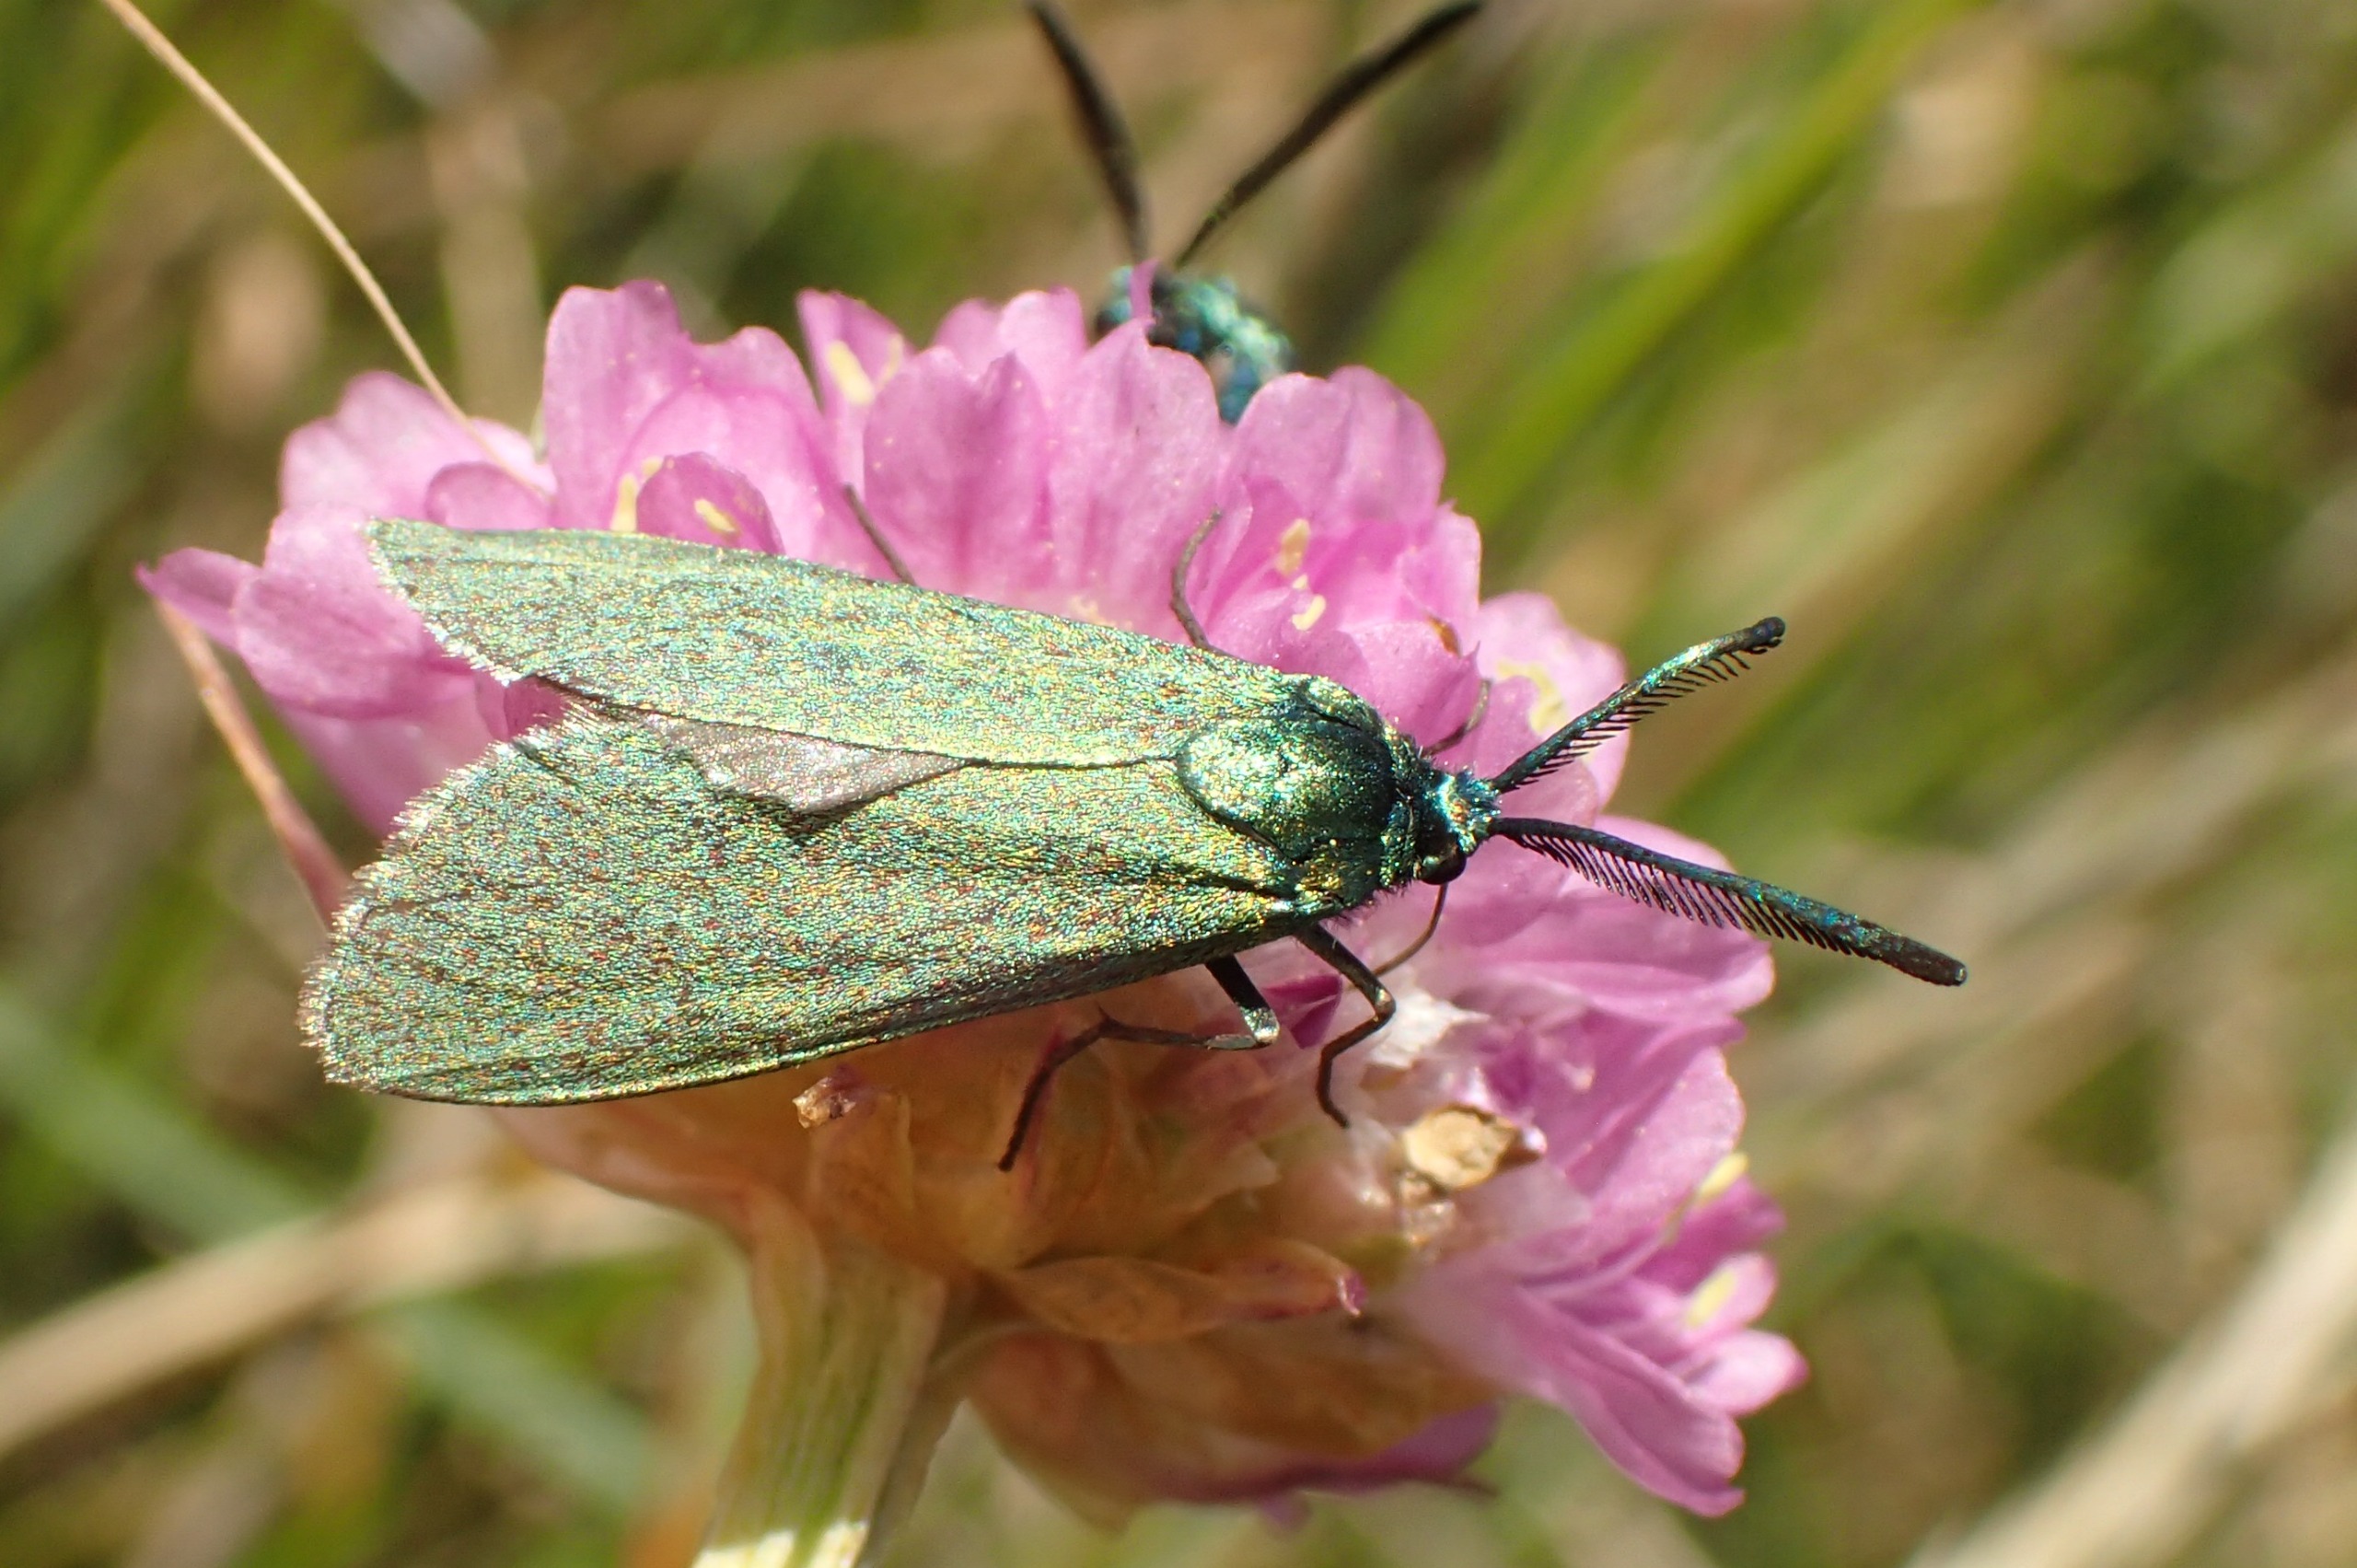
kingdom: Animalia
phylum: Arthropoda
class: Insecta
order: Lepidoptera
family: Zygaenidae
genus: Adscita
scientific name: Adscita statices
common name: Metalvinge
